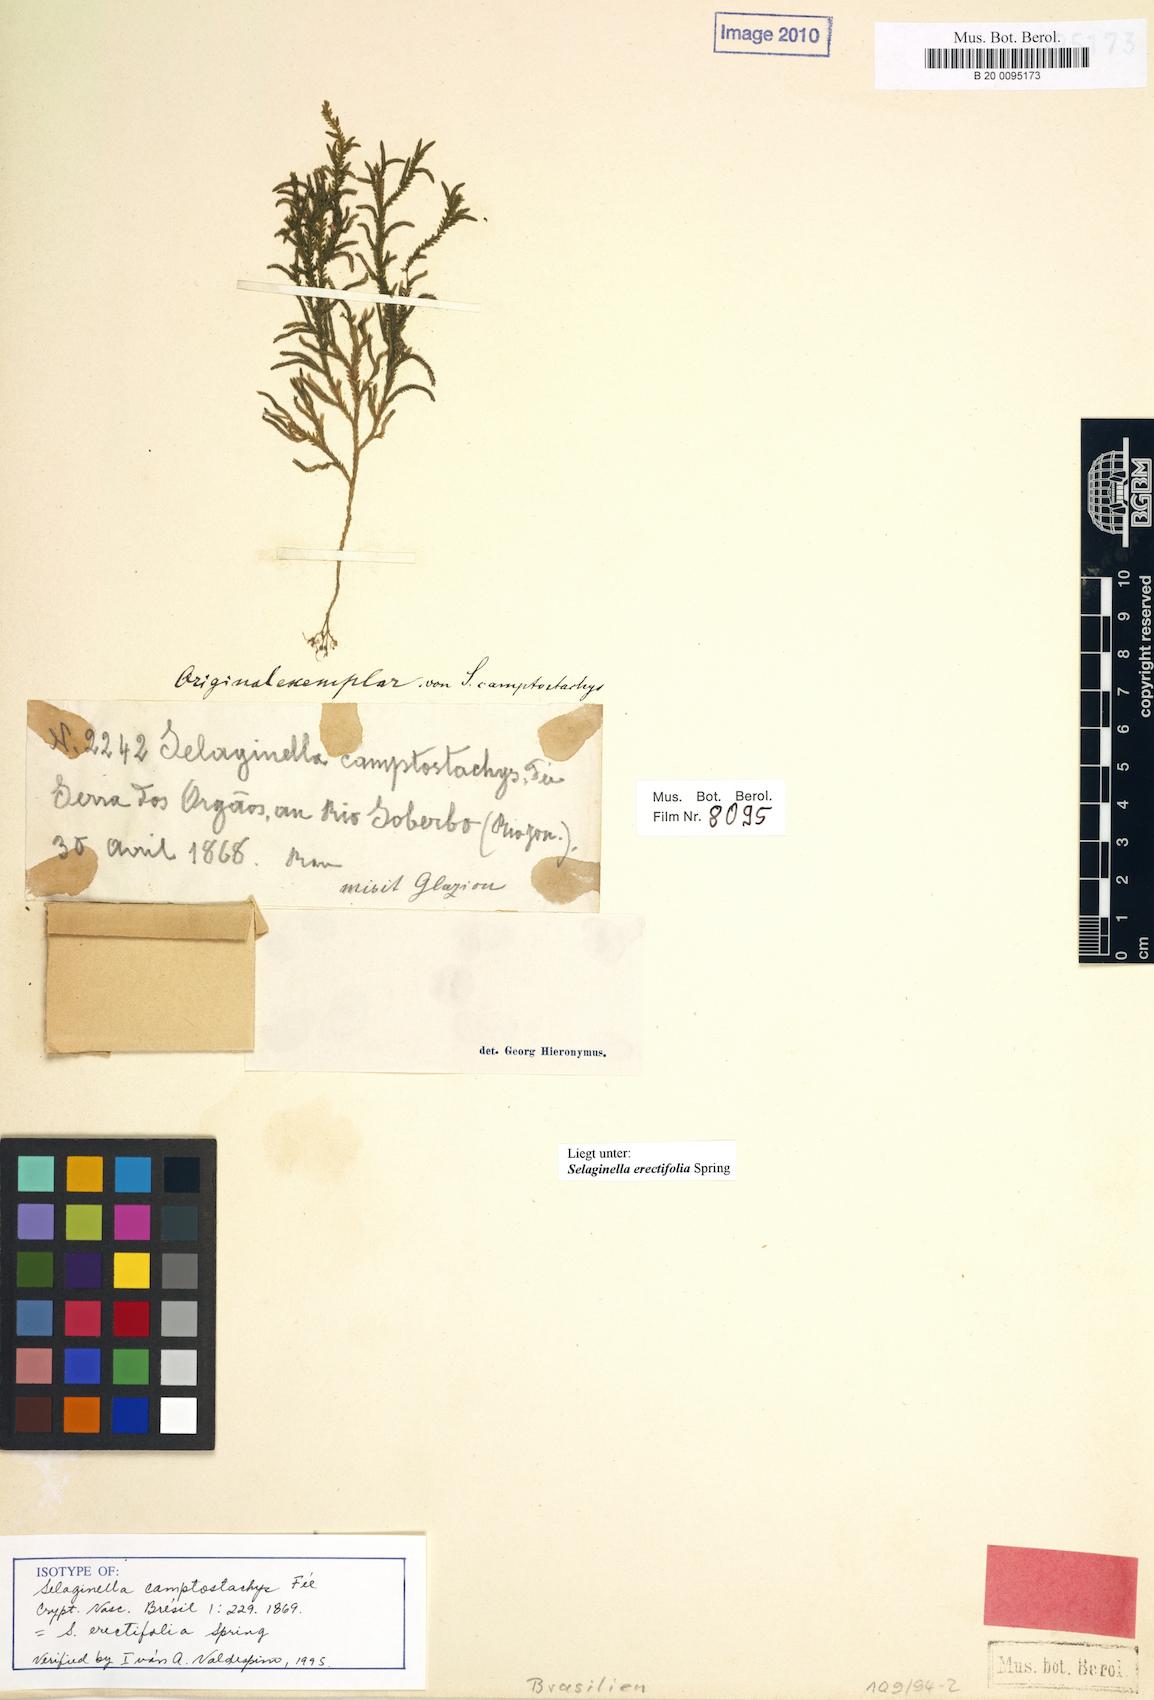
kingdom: Plantae
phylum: Tracheophyta
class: Lycopodiopsida
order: Selaginellales
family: Selaginellaceae
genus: Selaginella
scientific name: Selaginella erectifolia
